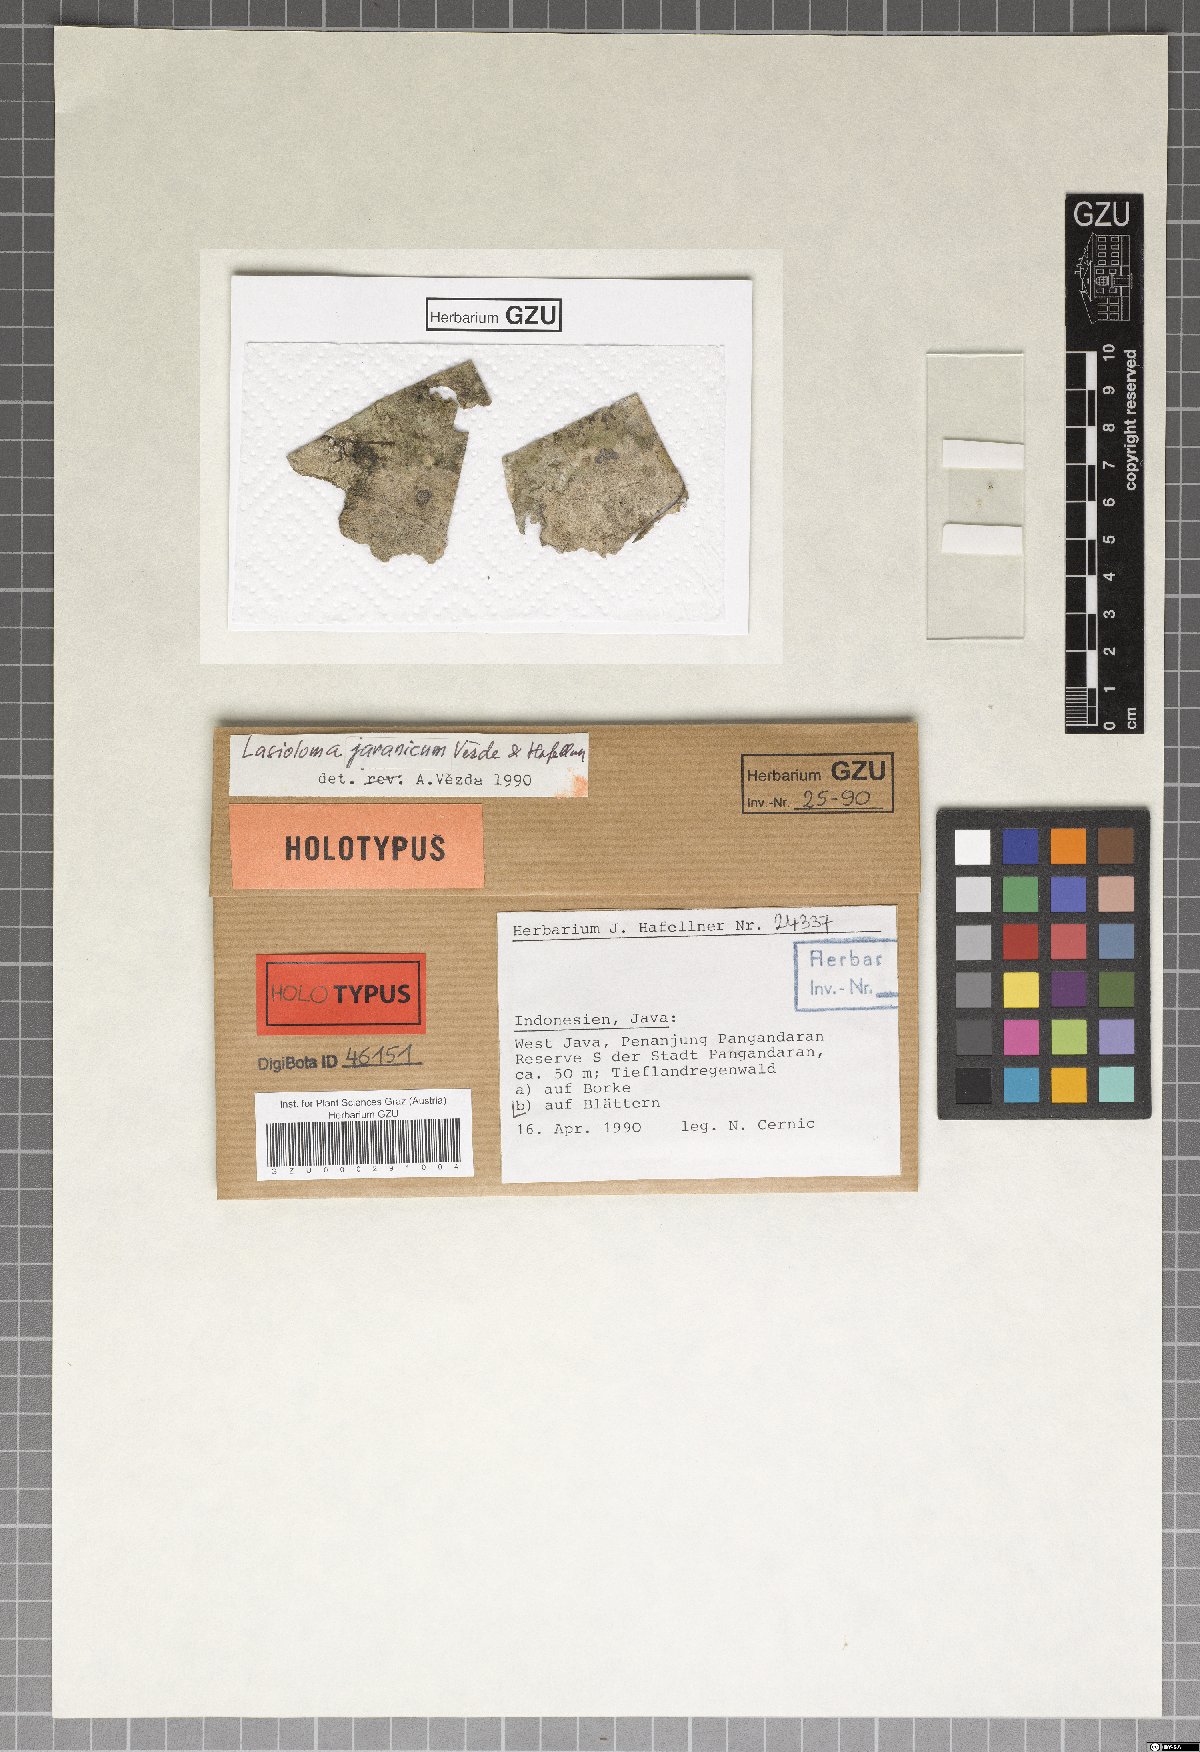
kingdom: Fungi
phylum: Ascomycota
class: Lecanoromycetes
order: Lecanorales
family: Ectolechiaceae
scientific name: Ectolechiaceae
